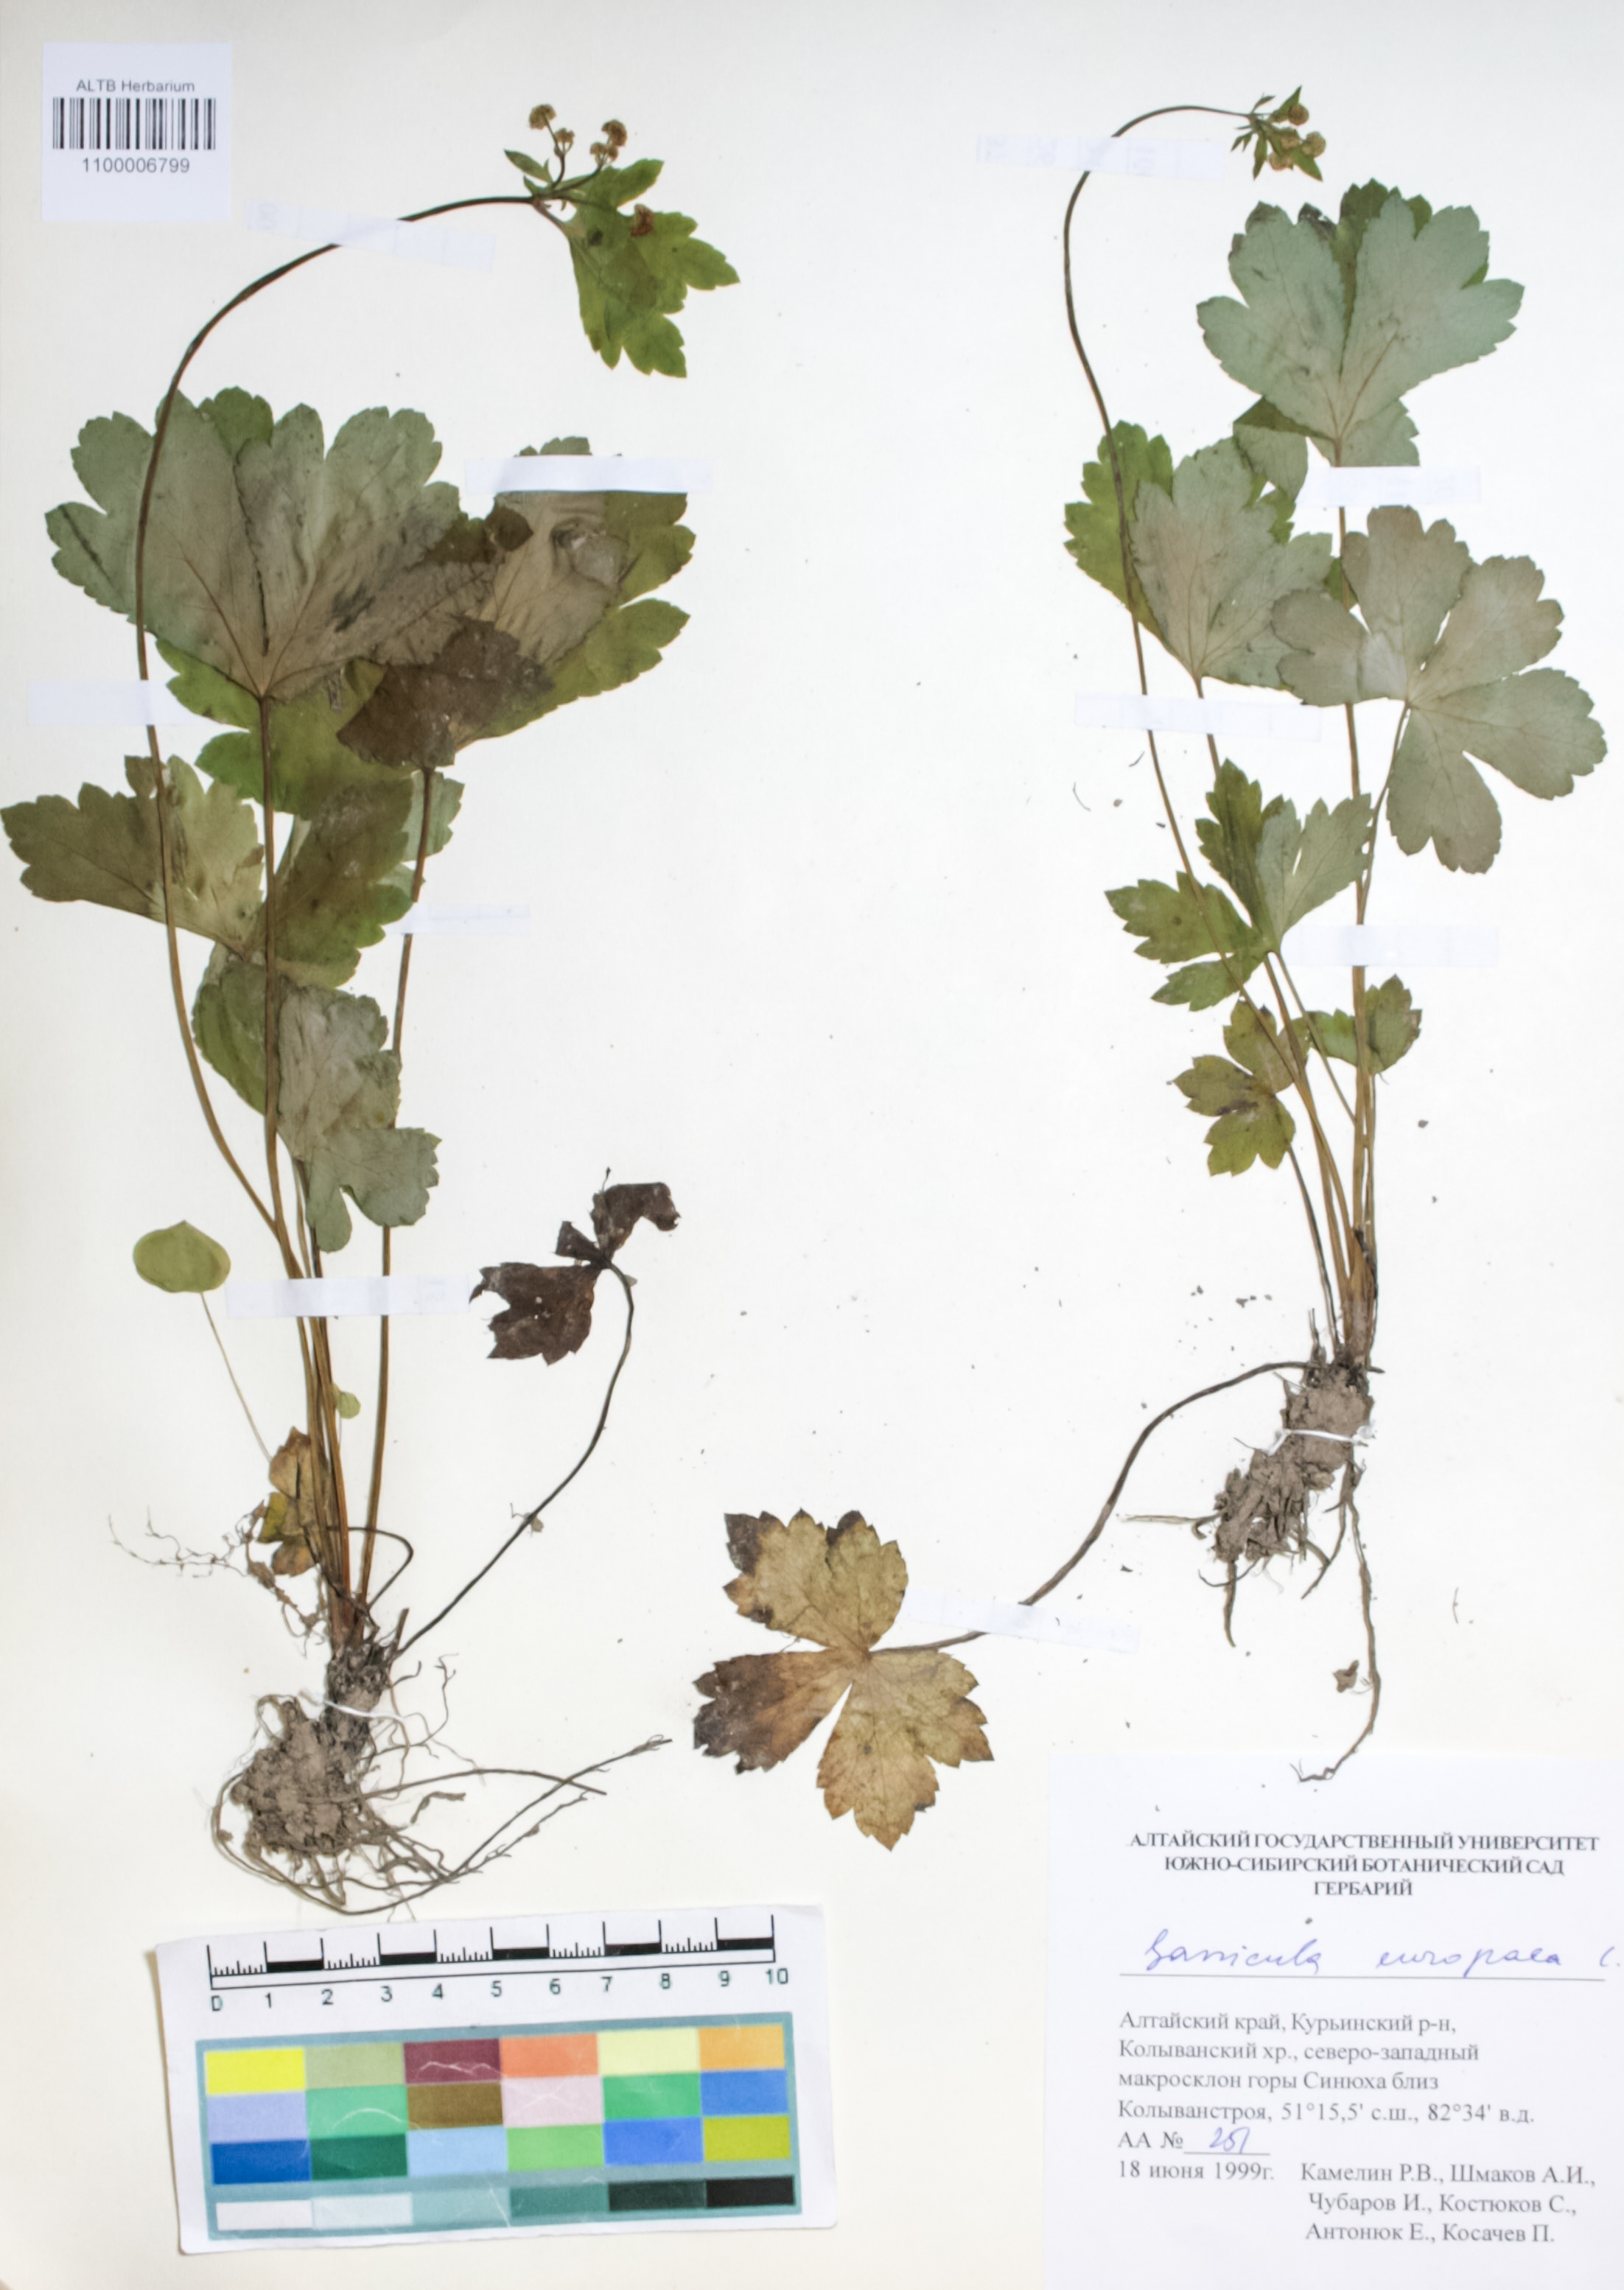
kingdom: Plantae
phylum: Tracheophyta
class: Magnoliopsida
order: Apiales
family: Apiaceae
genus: Sanicula
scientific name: Sanicula europaea
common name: Sanicle
